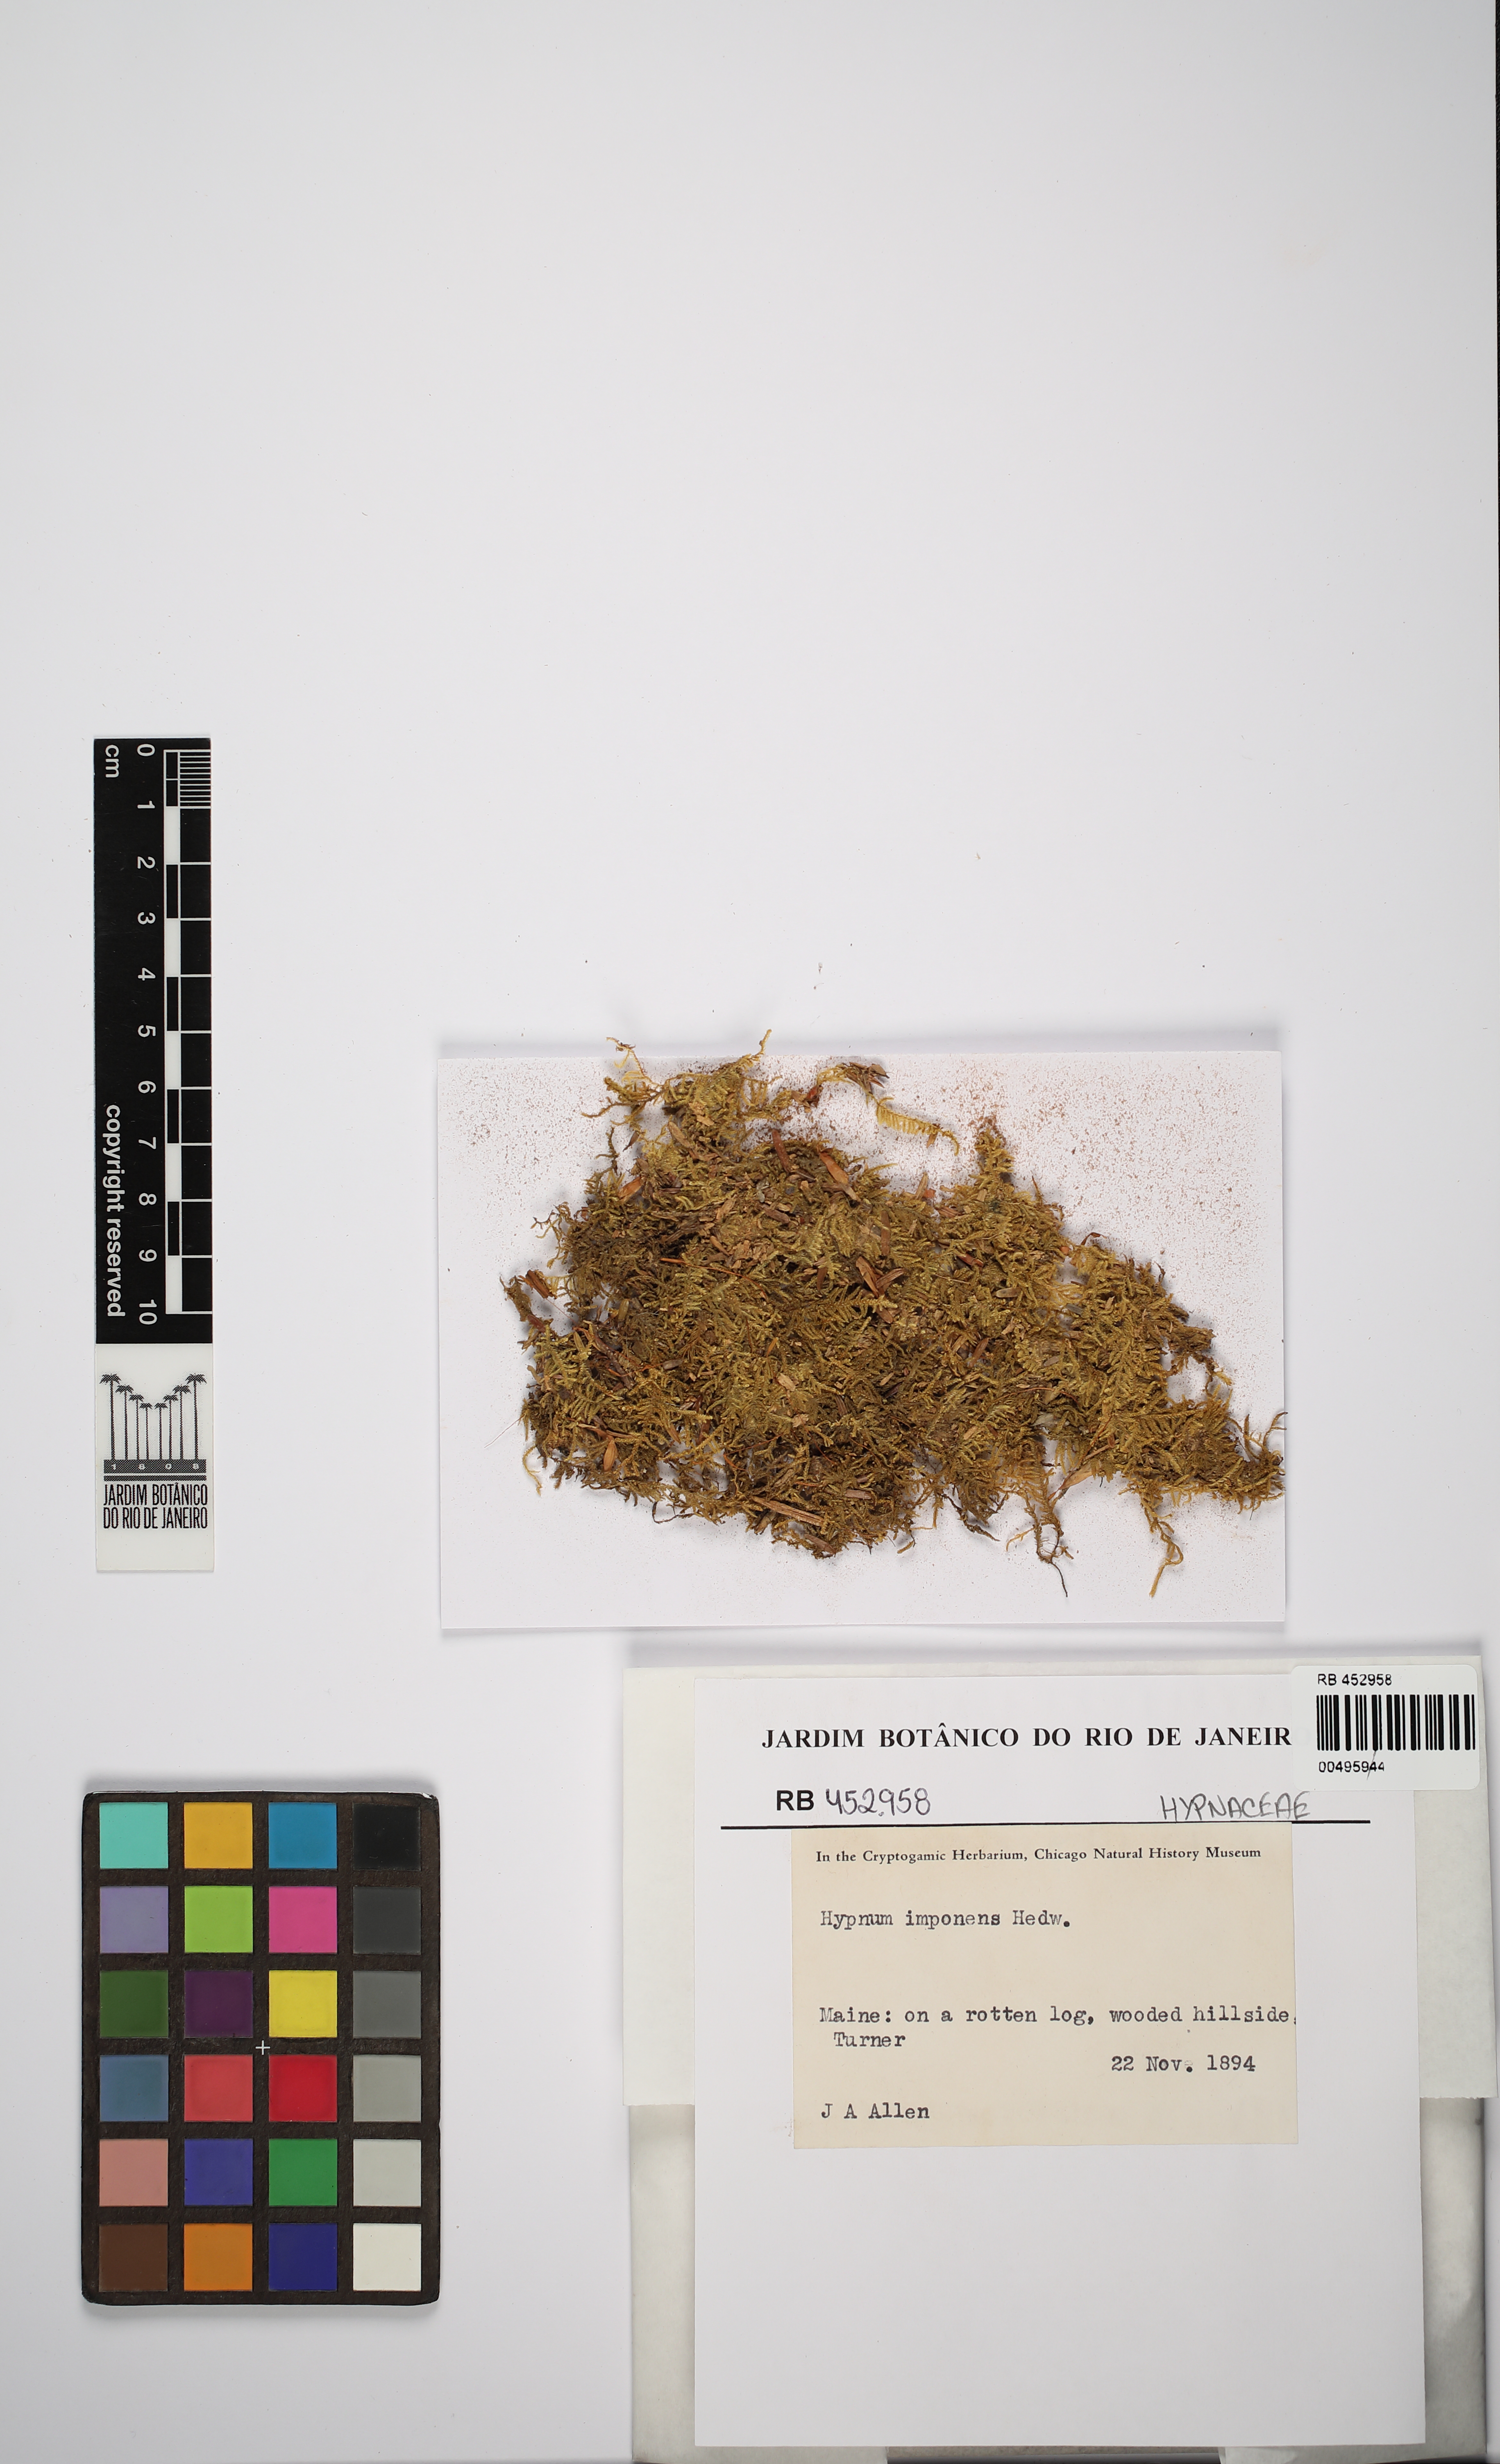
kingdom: Plantae
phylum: Bryophyta
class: Bryopsida
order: Hypnales
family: Callicladiaceae
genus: Callicladium
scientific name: Callicladium imponens
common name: Brocade moss
